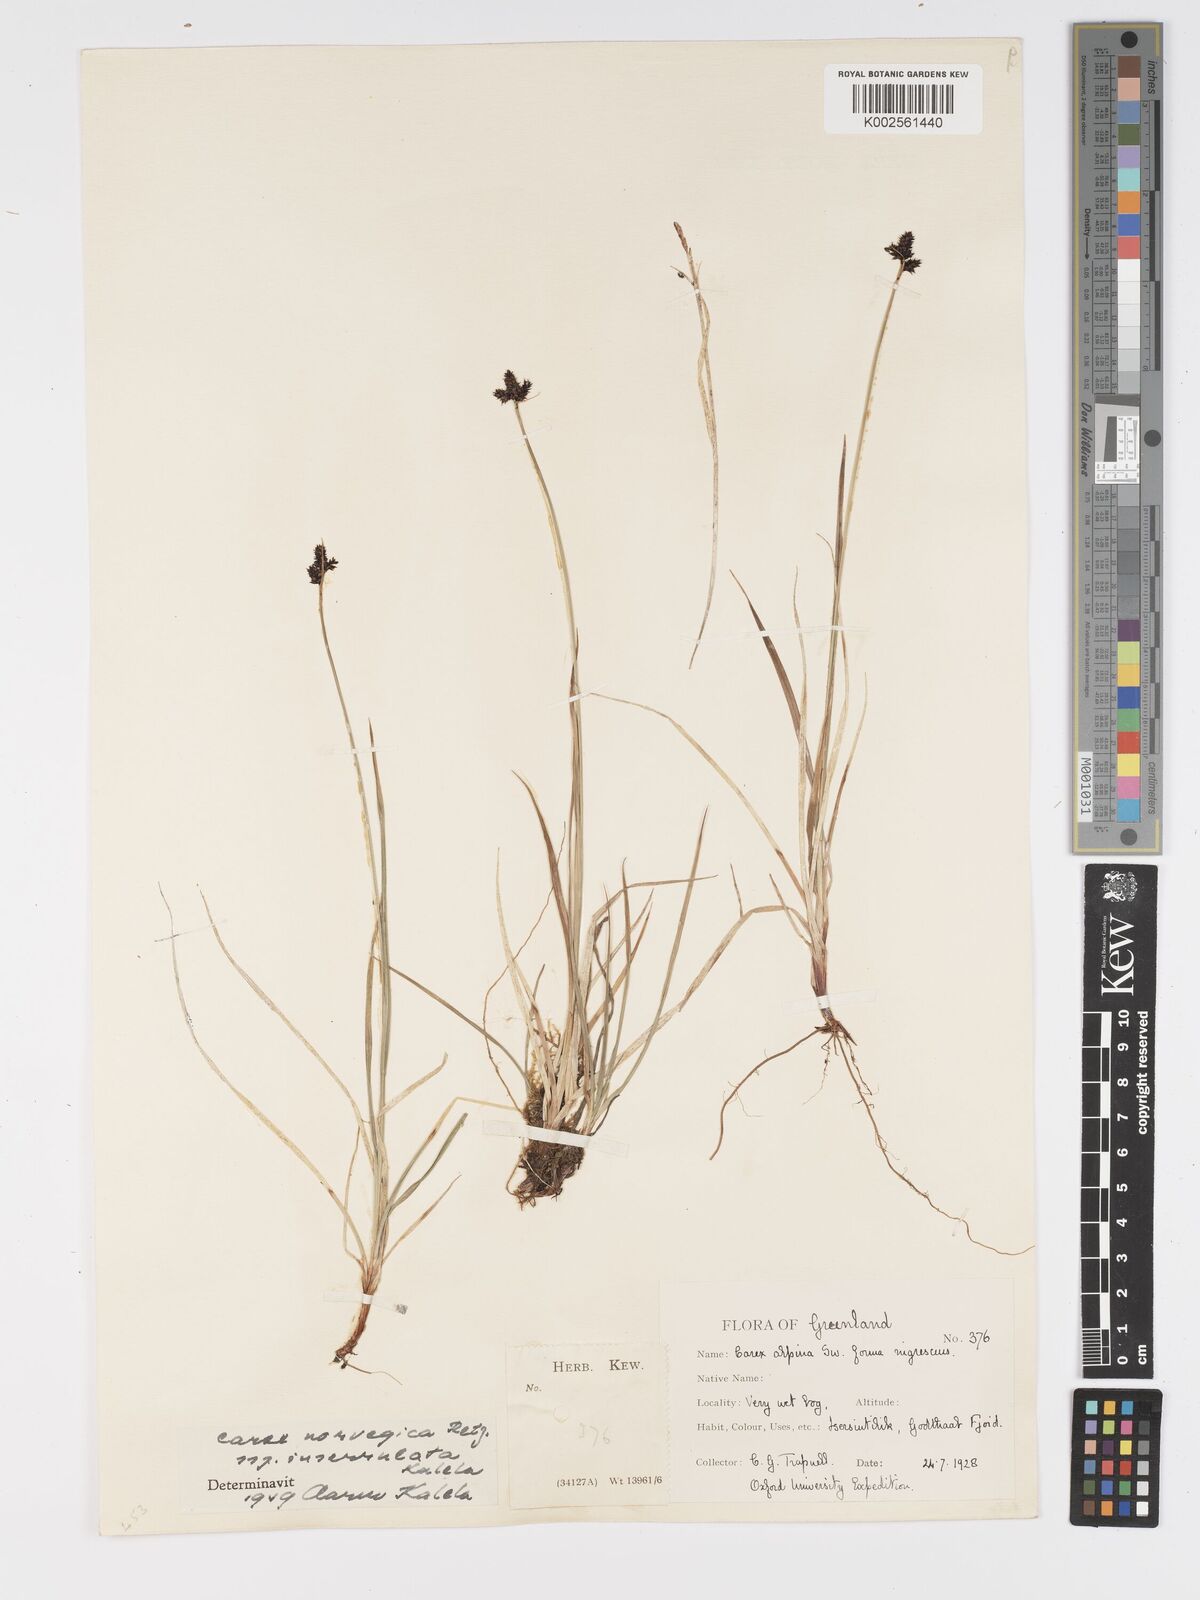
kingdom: Plantae
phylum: Tracheophyta
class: Liliopsida
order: Poales
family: Cyperaceae
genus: Carex
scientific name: Carex norvegica
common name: Close-headed alpine-sedge
